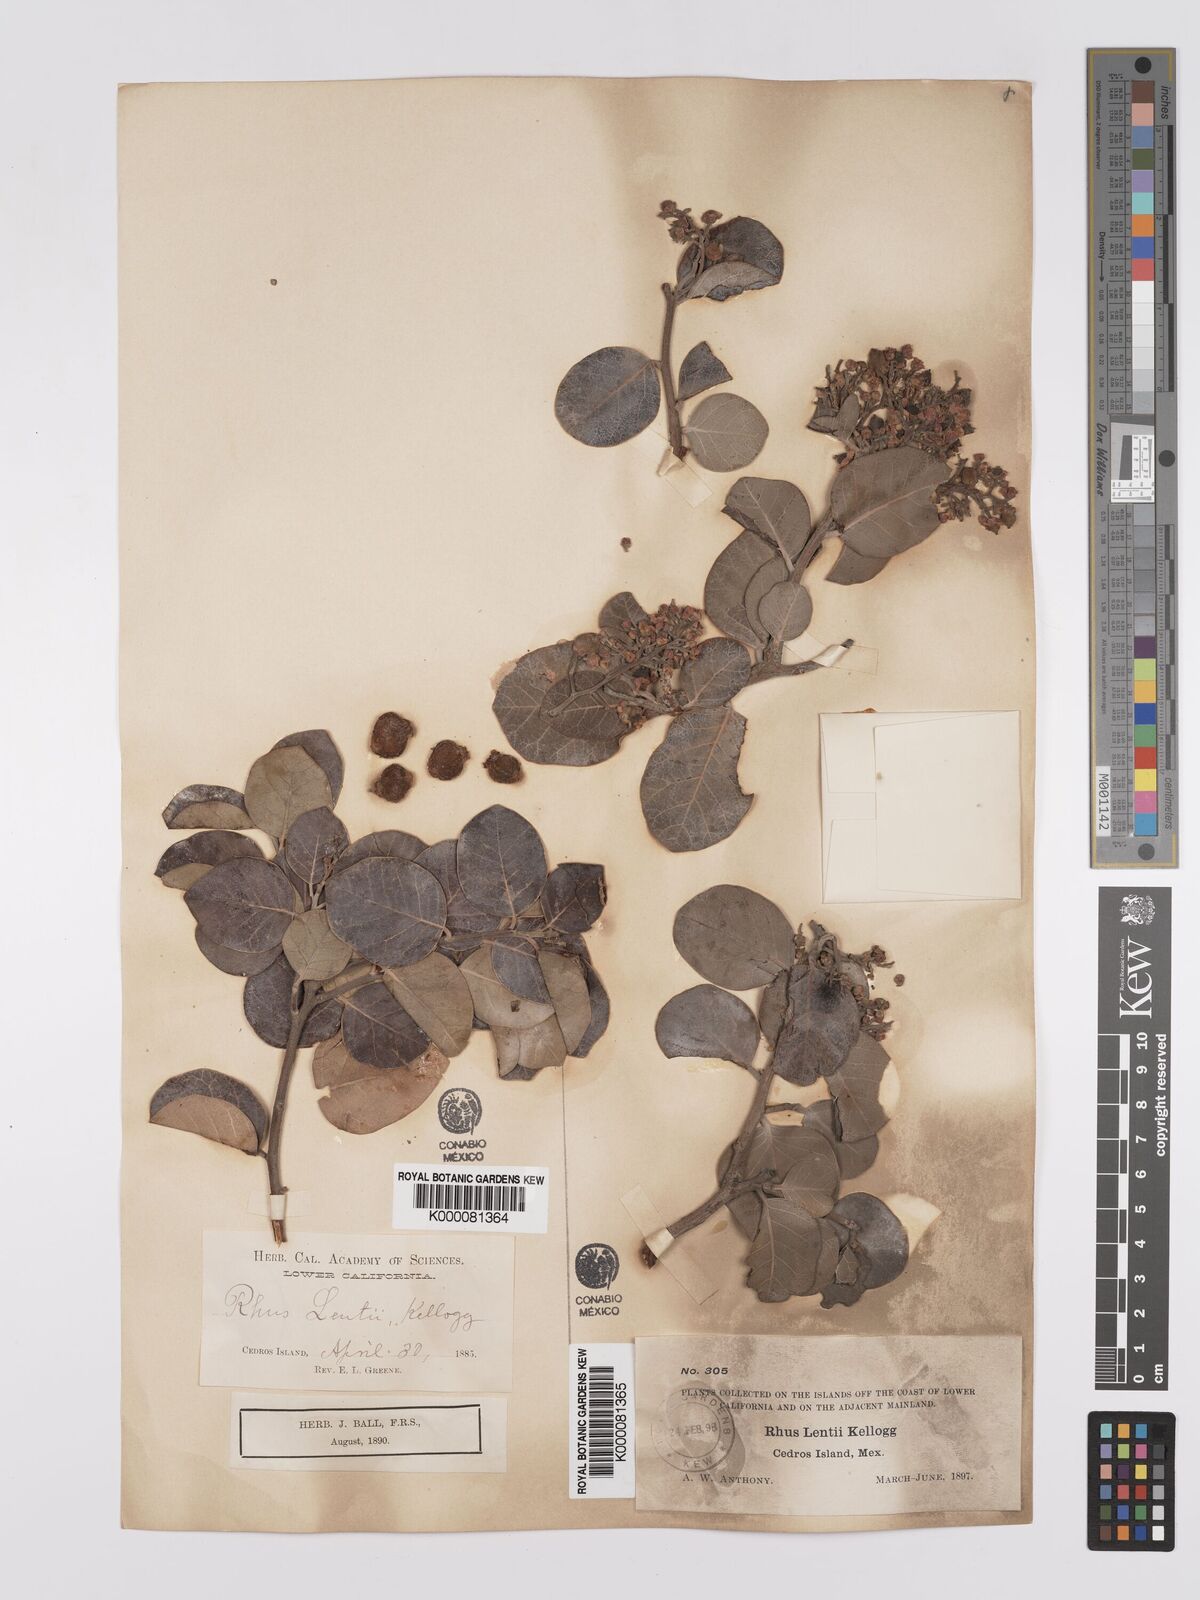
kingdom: Plantae
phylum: Tracheophyta
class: Magnoliopsida
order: Sapindales
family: Anacardiaceae
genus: Rhus
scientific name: Rhus lentii
